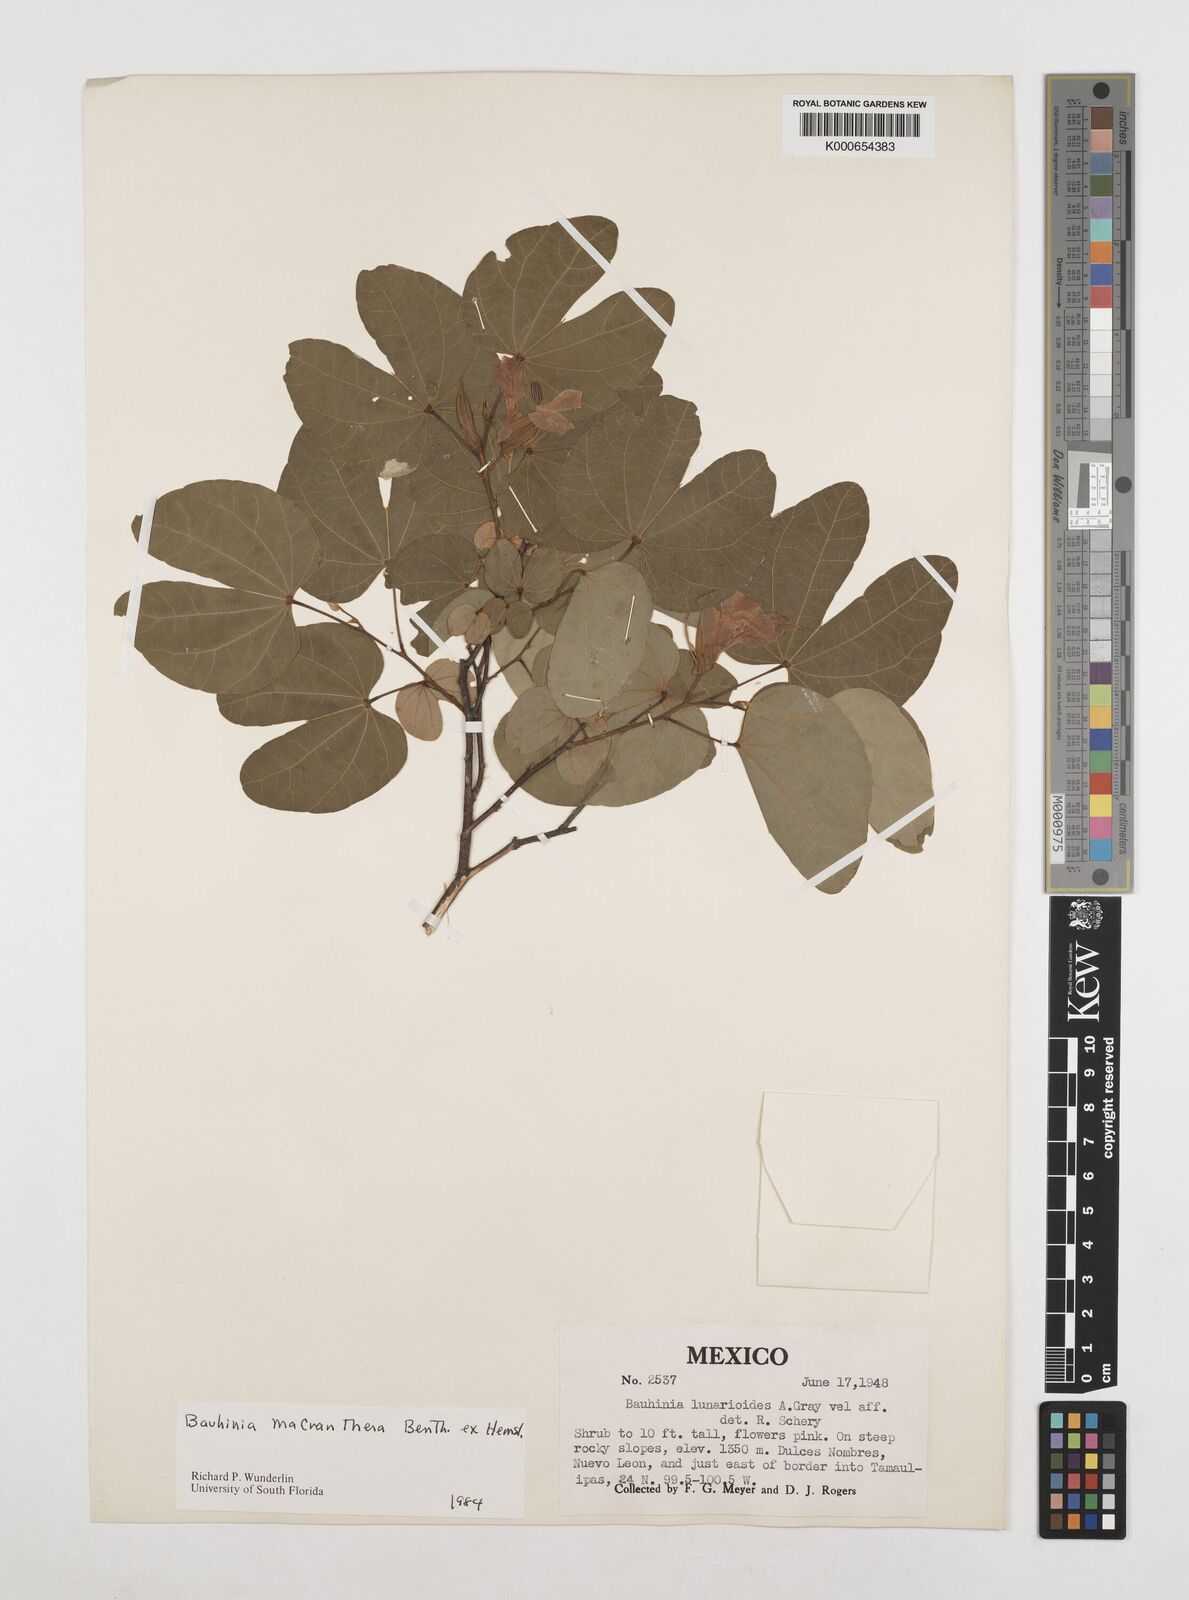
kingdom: Plantae
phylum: Tracheophyta
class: Magnoliopsida
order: Fabales
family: Fabaceae
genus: Bauhinia
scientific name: Bauhinia macranthera
